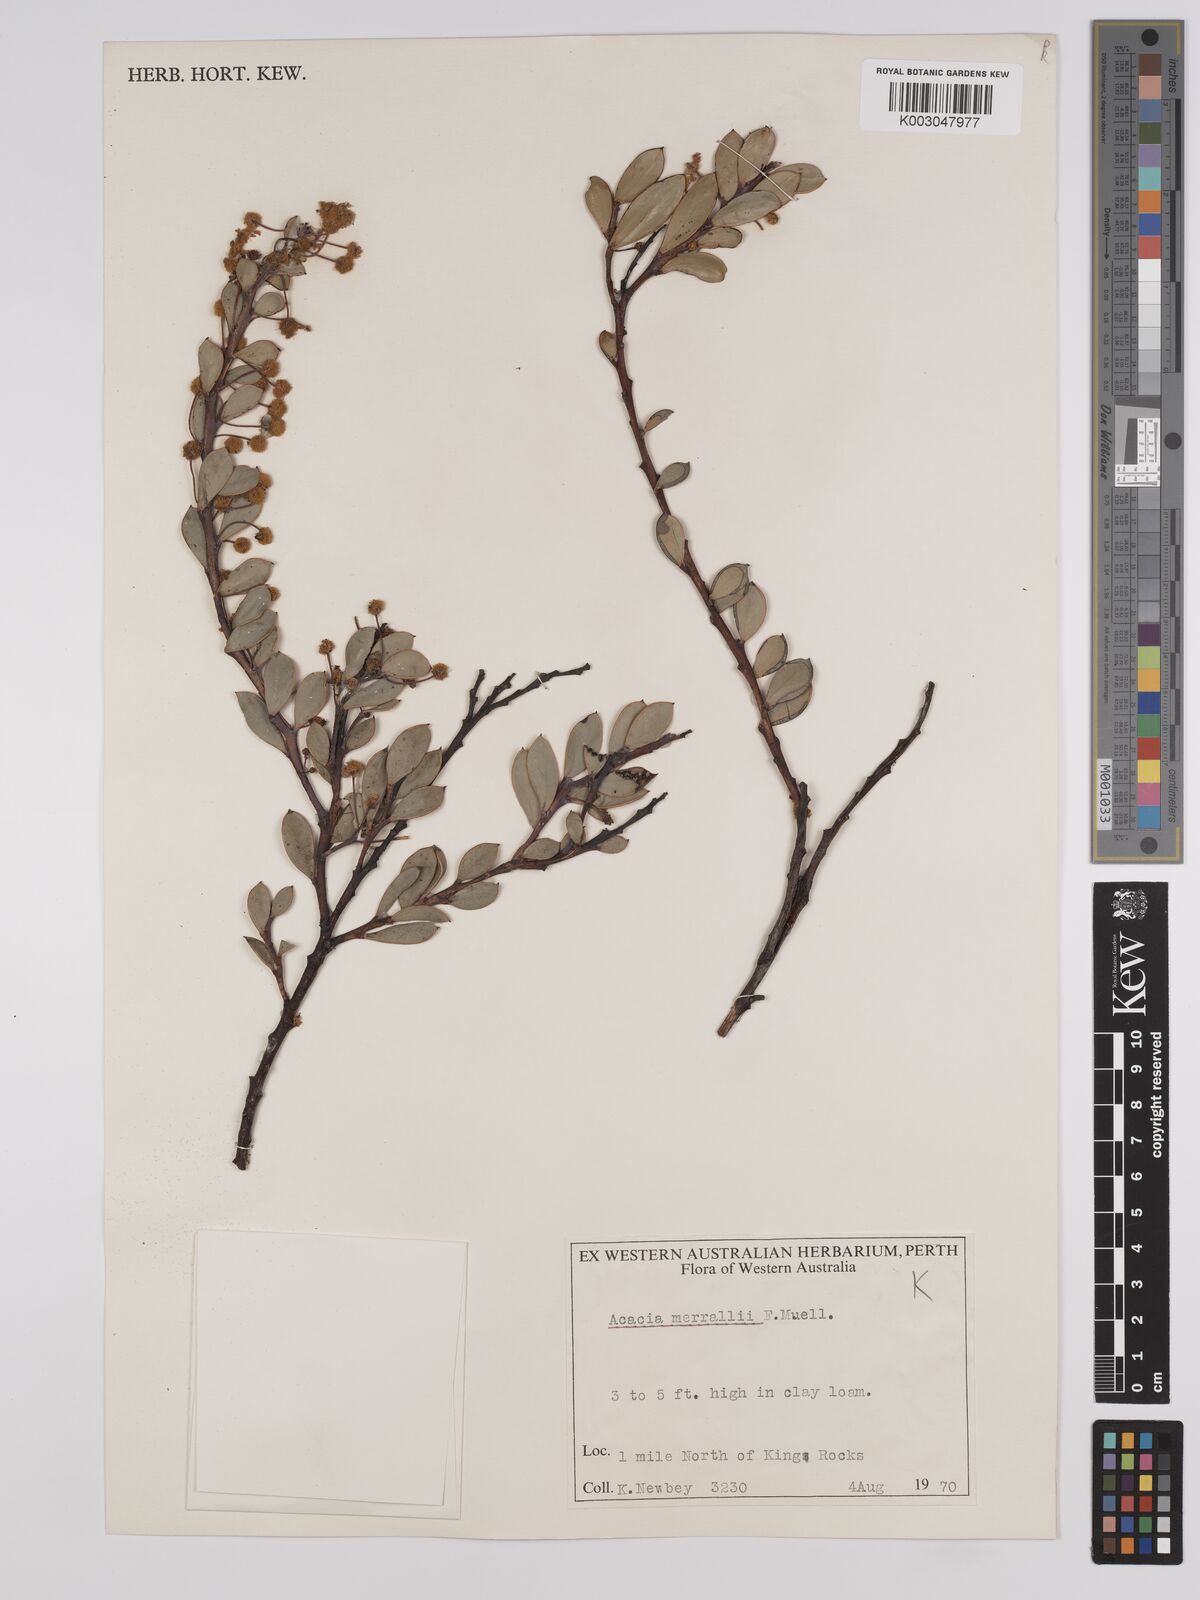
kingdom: Plantae
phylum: Tracheophyta
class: Magnoliopsida
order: Fabales
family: Fabaceae
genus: Acacia
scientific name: Acacia sericocarpa
